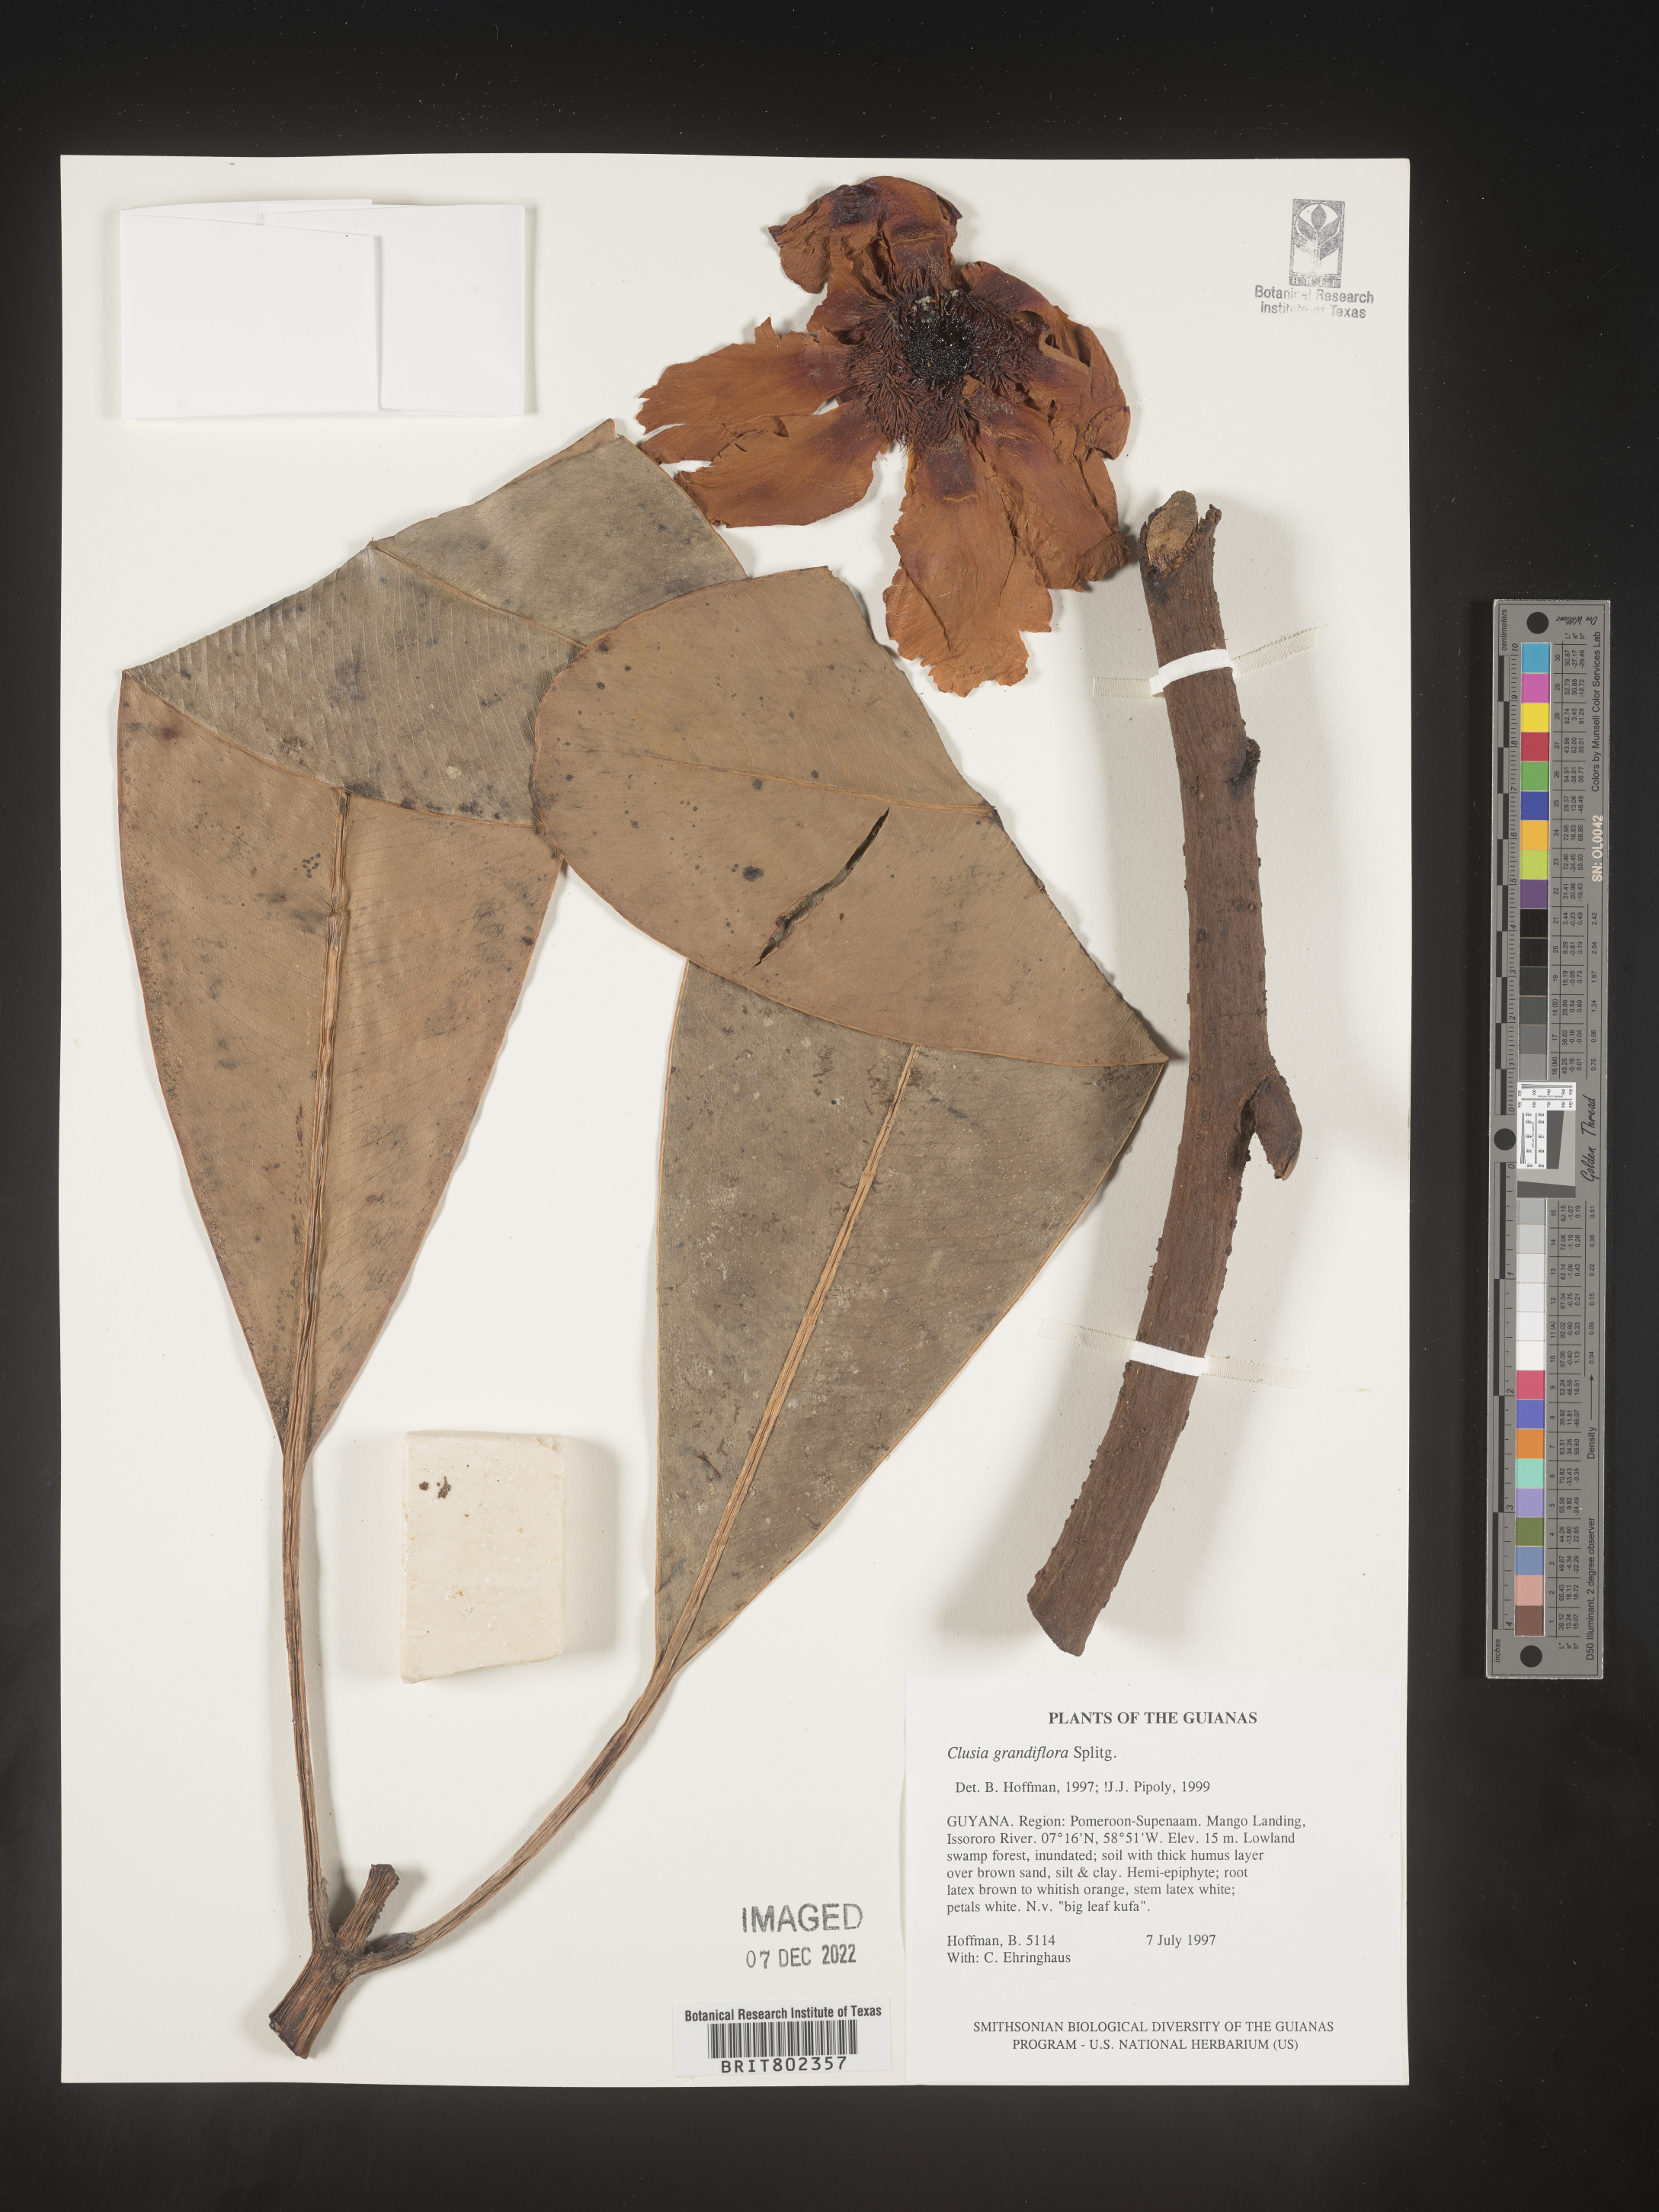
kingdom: Plantae
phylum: Tracheophyta
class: Magnoliopsida
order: Malpighiales
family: Clusiaceae
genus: Clusia
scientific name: Clusia grandiflora
